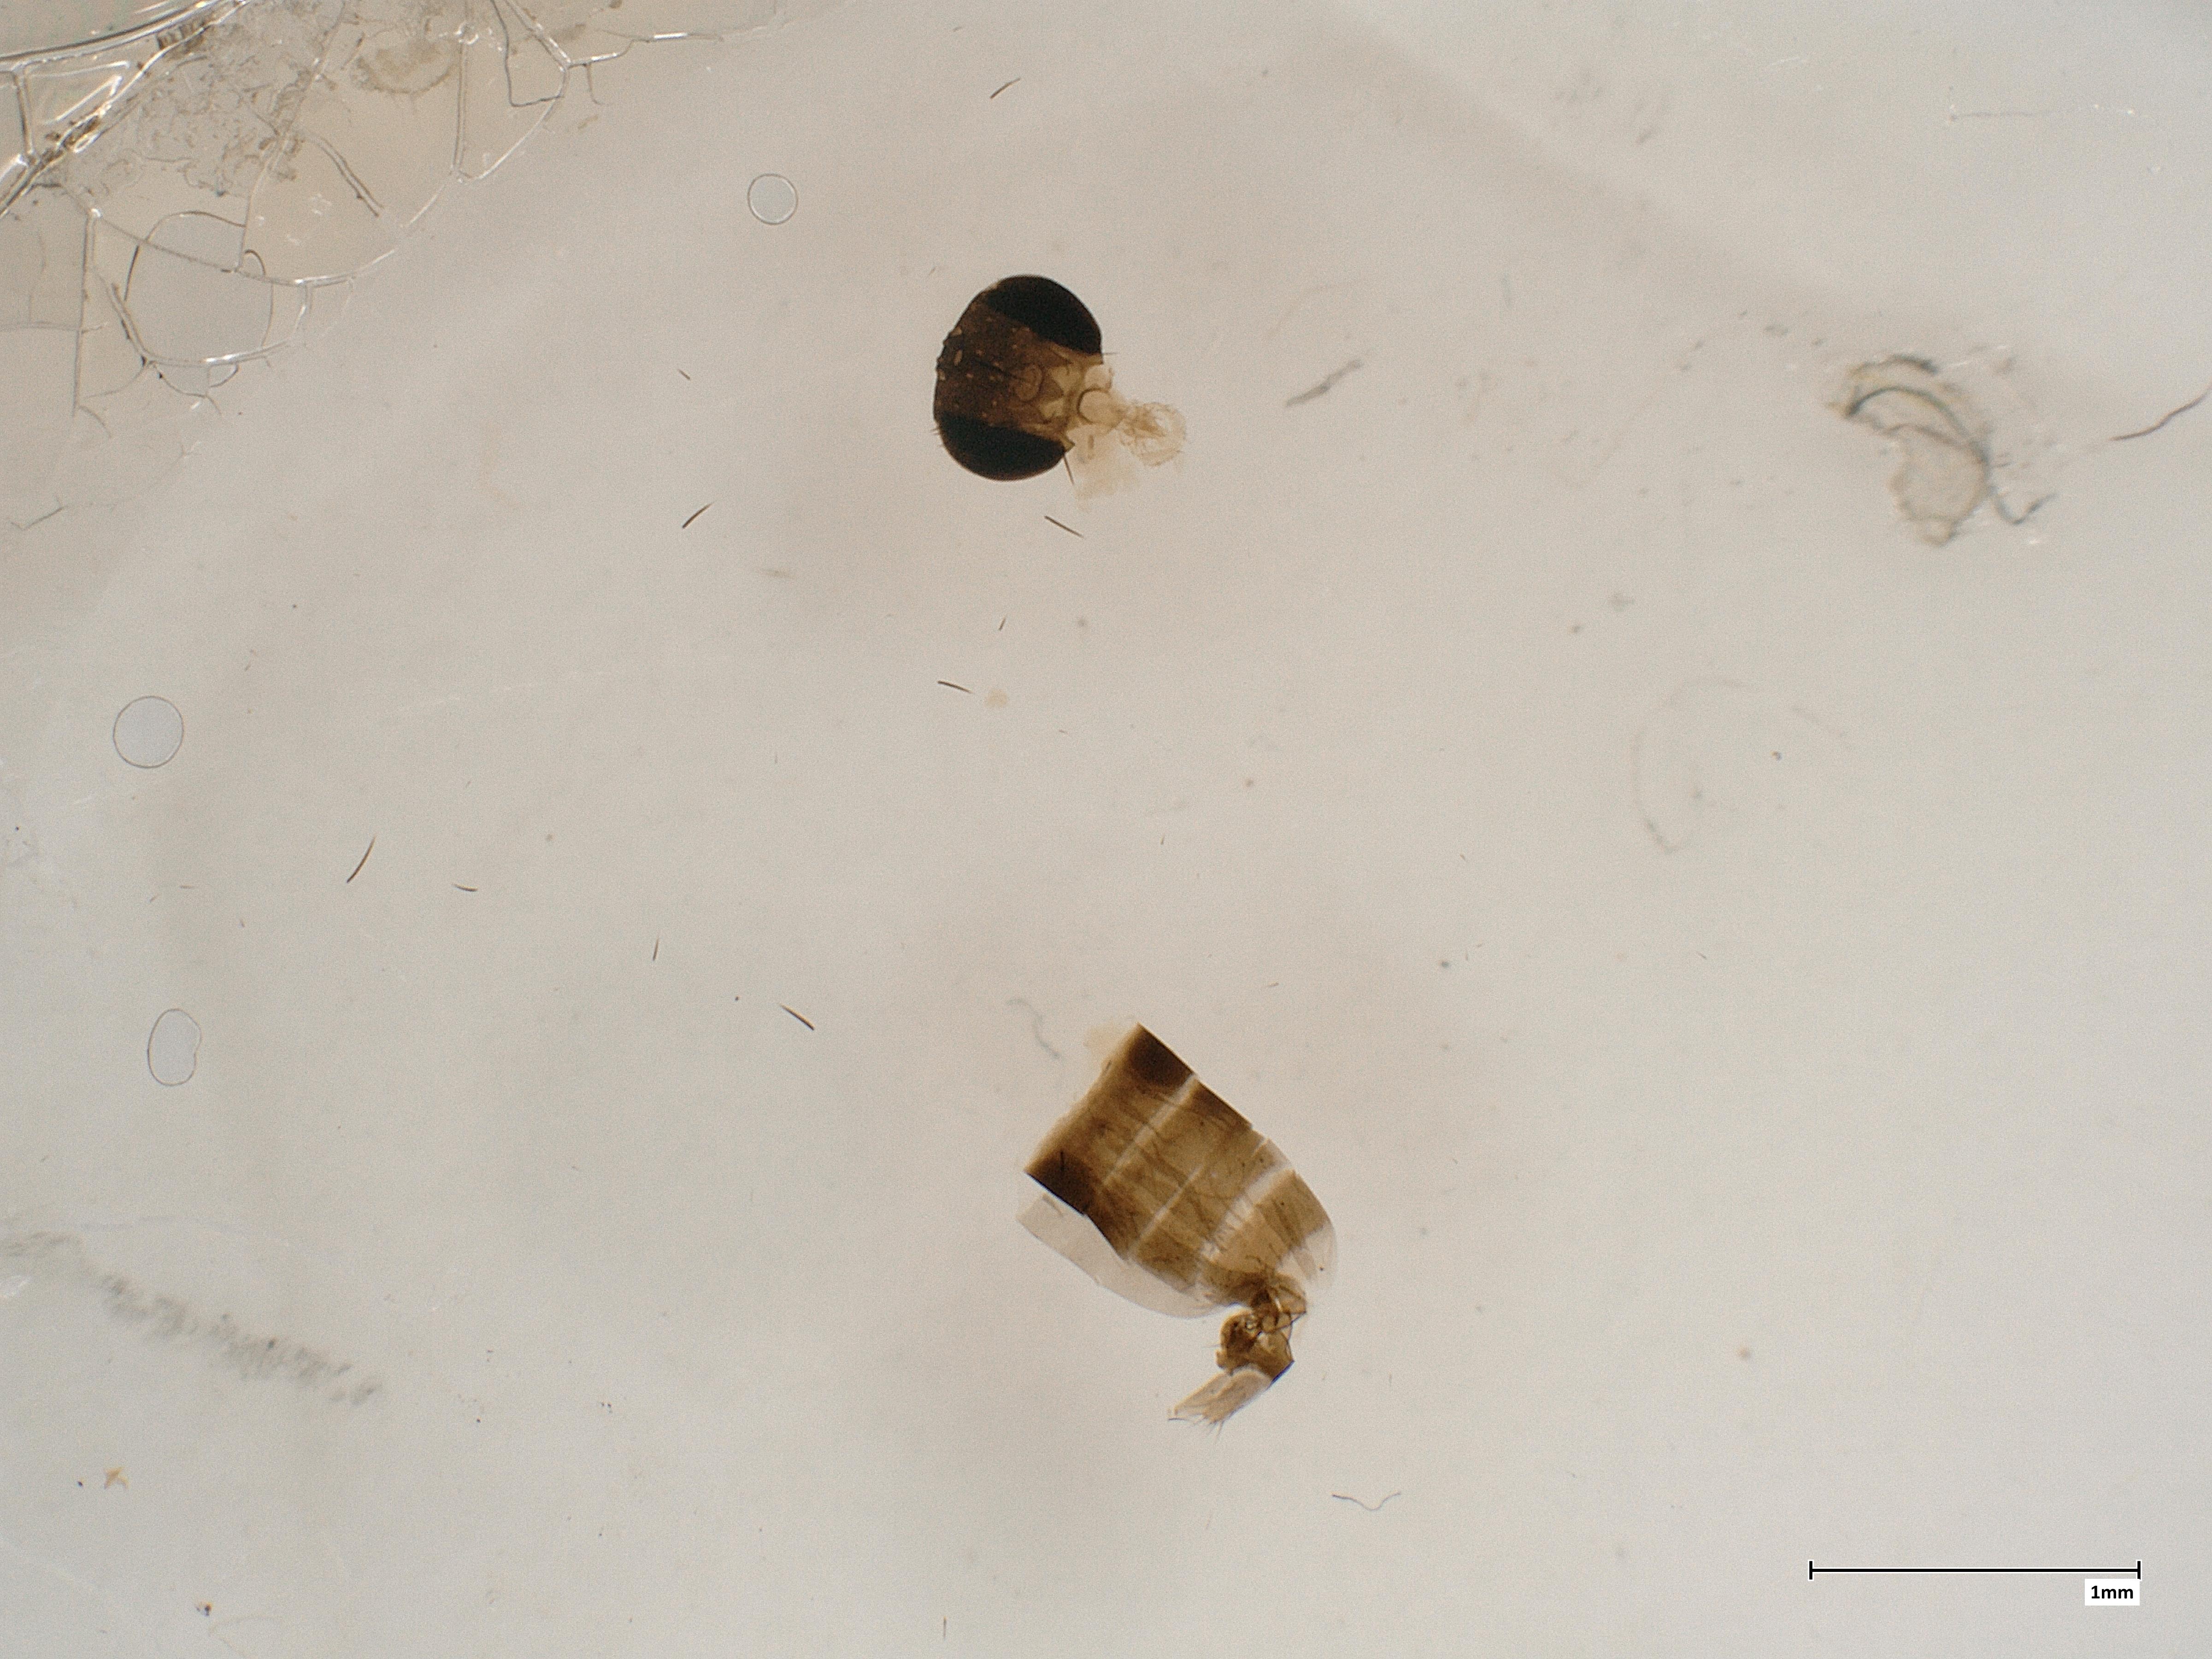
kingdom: Animalia
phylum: Arthropoda
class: Insecta
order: Diptera
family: Phoridae
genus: Megaselia
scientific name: Megaselia emarginata
